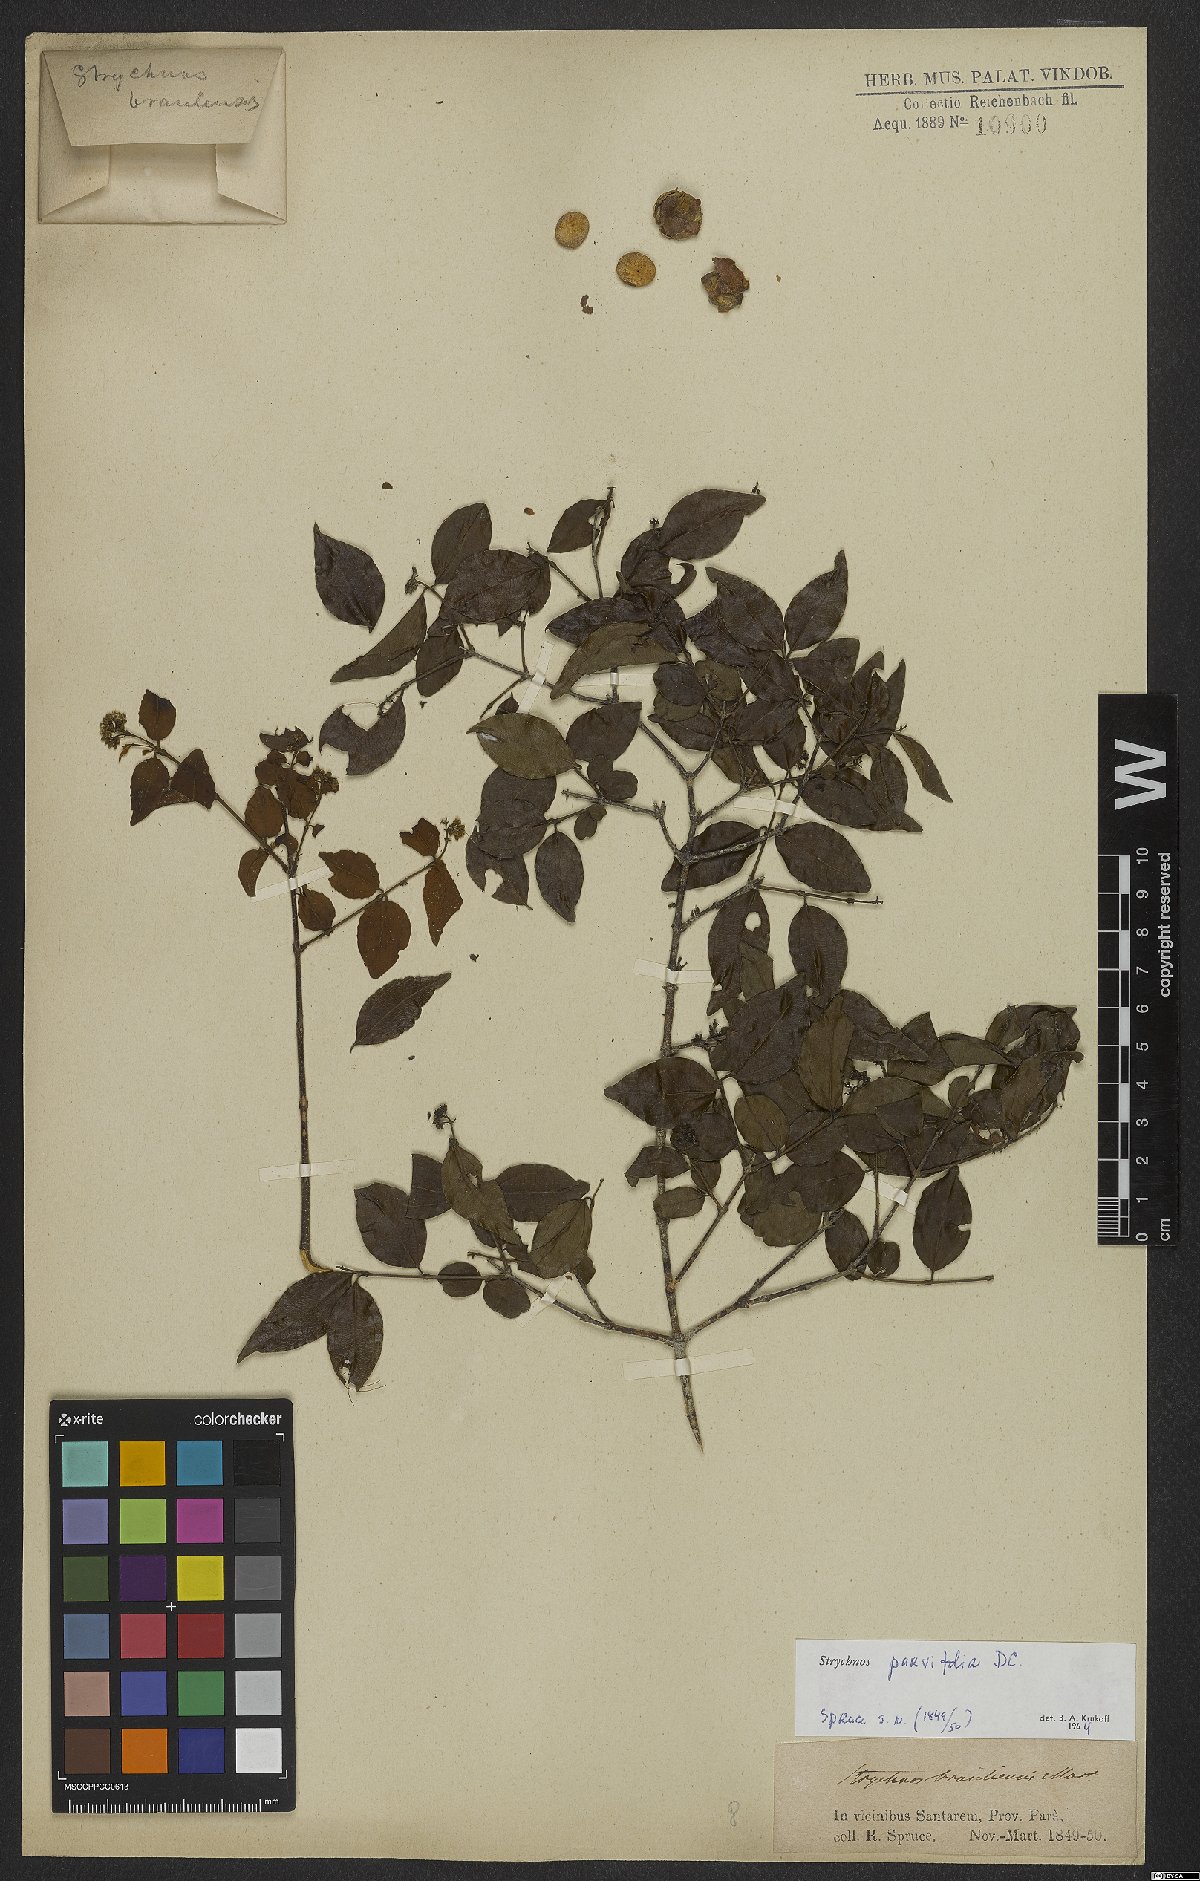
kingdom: Plantae
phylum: Tracheophyta
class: Magnoliopsida
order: Gentianales
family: Loganiaceae
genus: Strychnos
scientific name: Strychnos parvifolia
